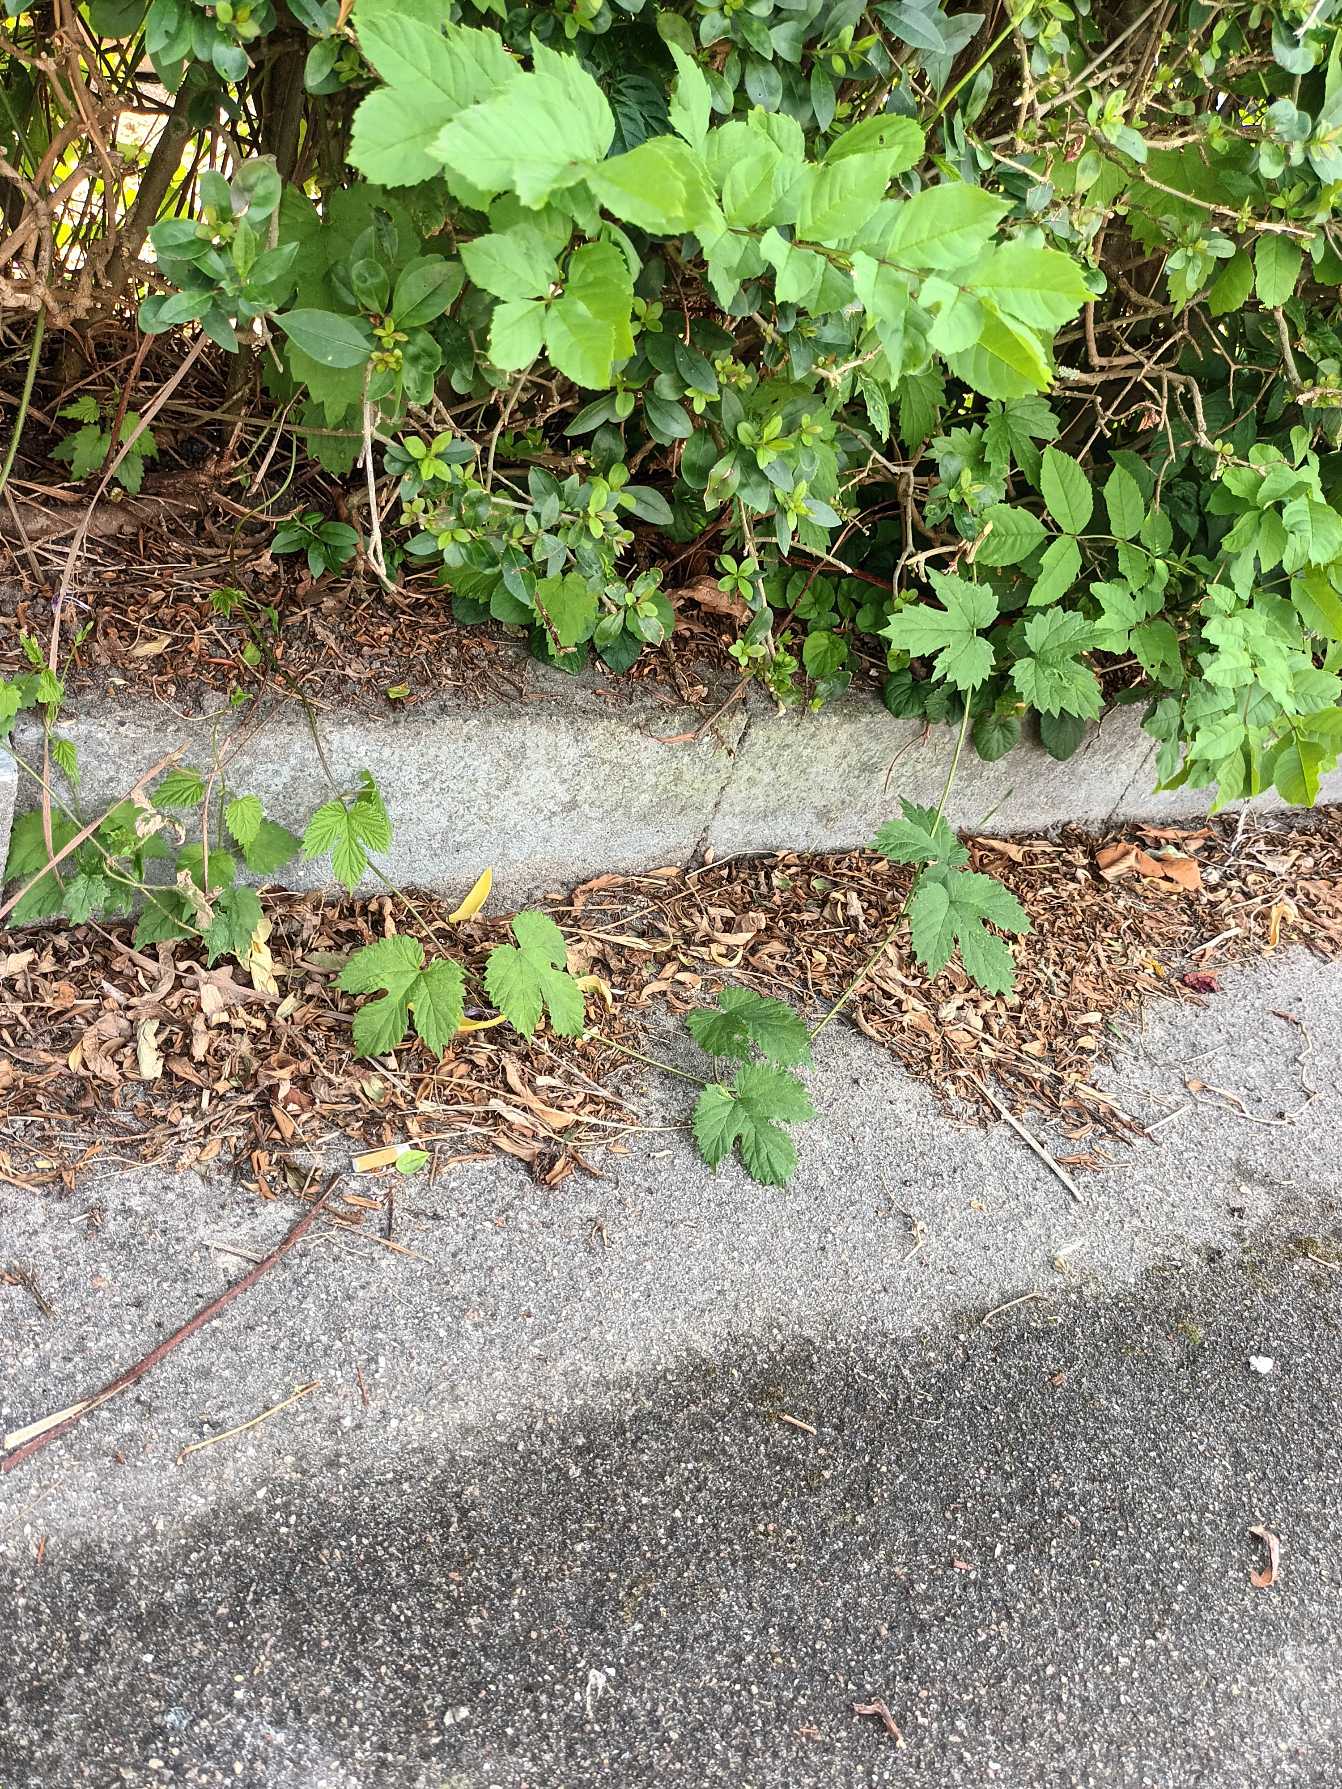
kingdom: Plantae
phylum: Tracheophyta
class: Magnoliopsida
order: Rosales
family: Cannabaceae
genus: Humulus
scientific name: Humulus lupulus
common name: Humle
